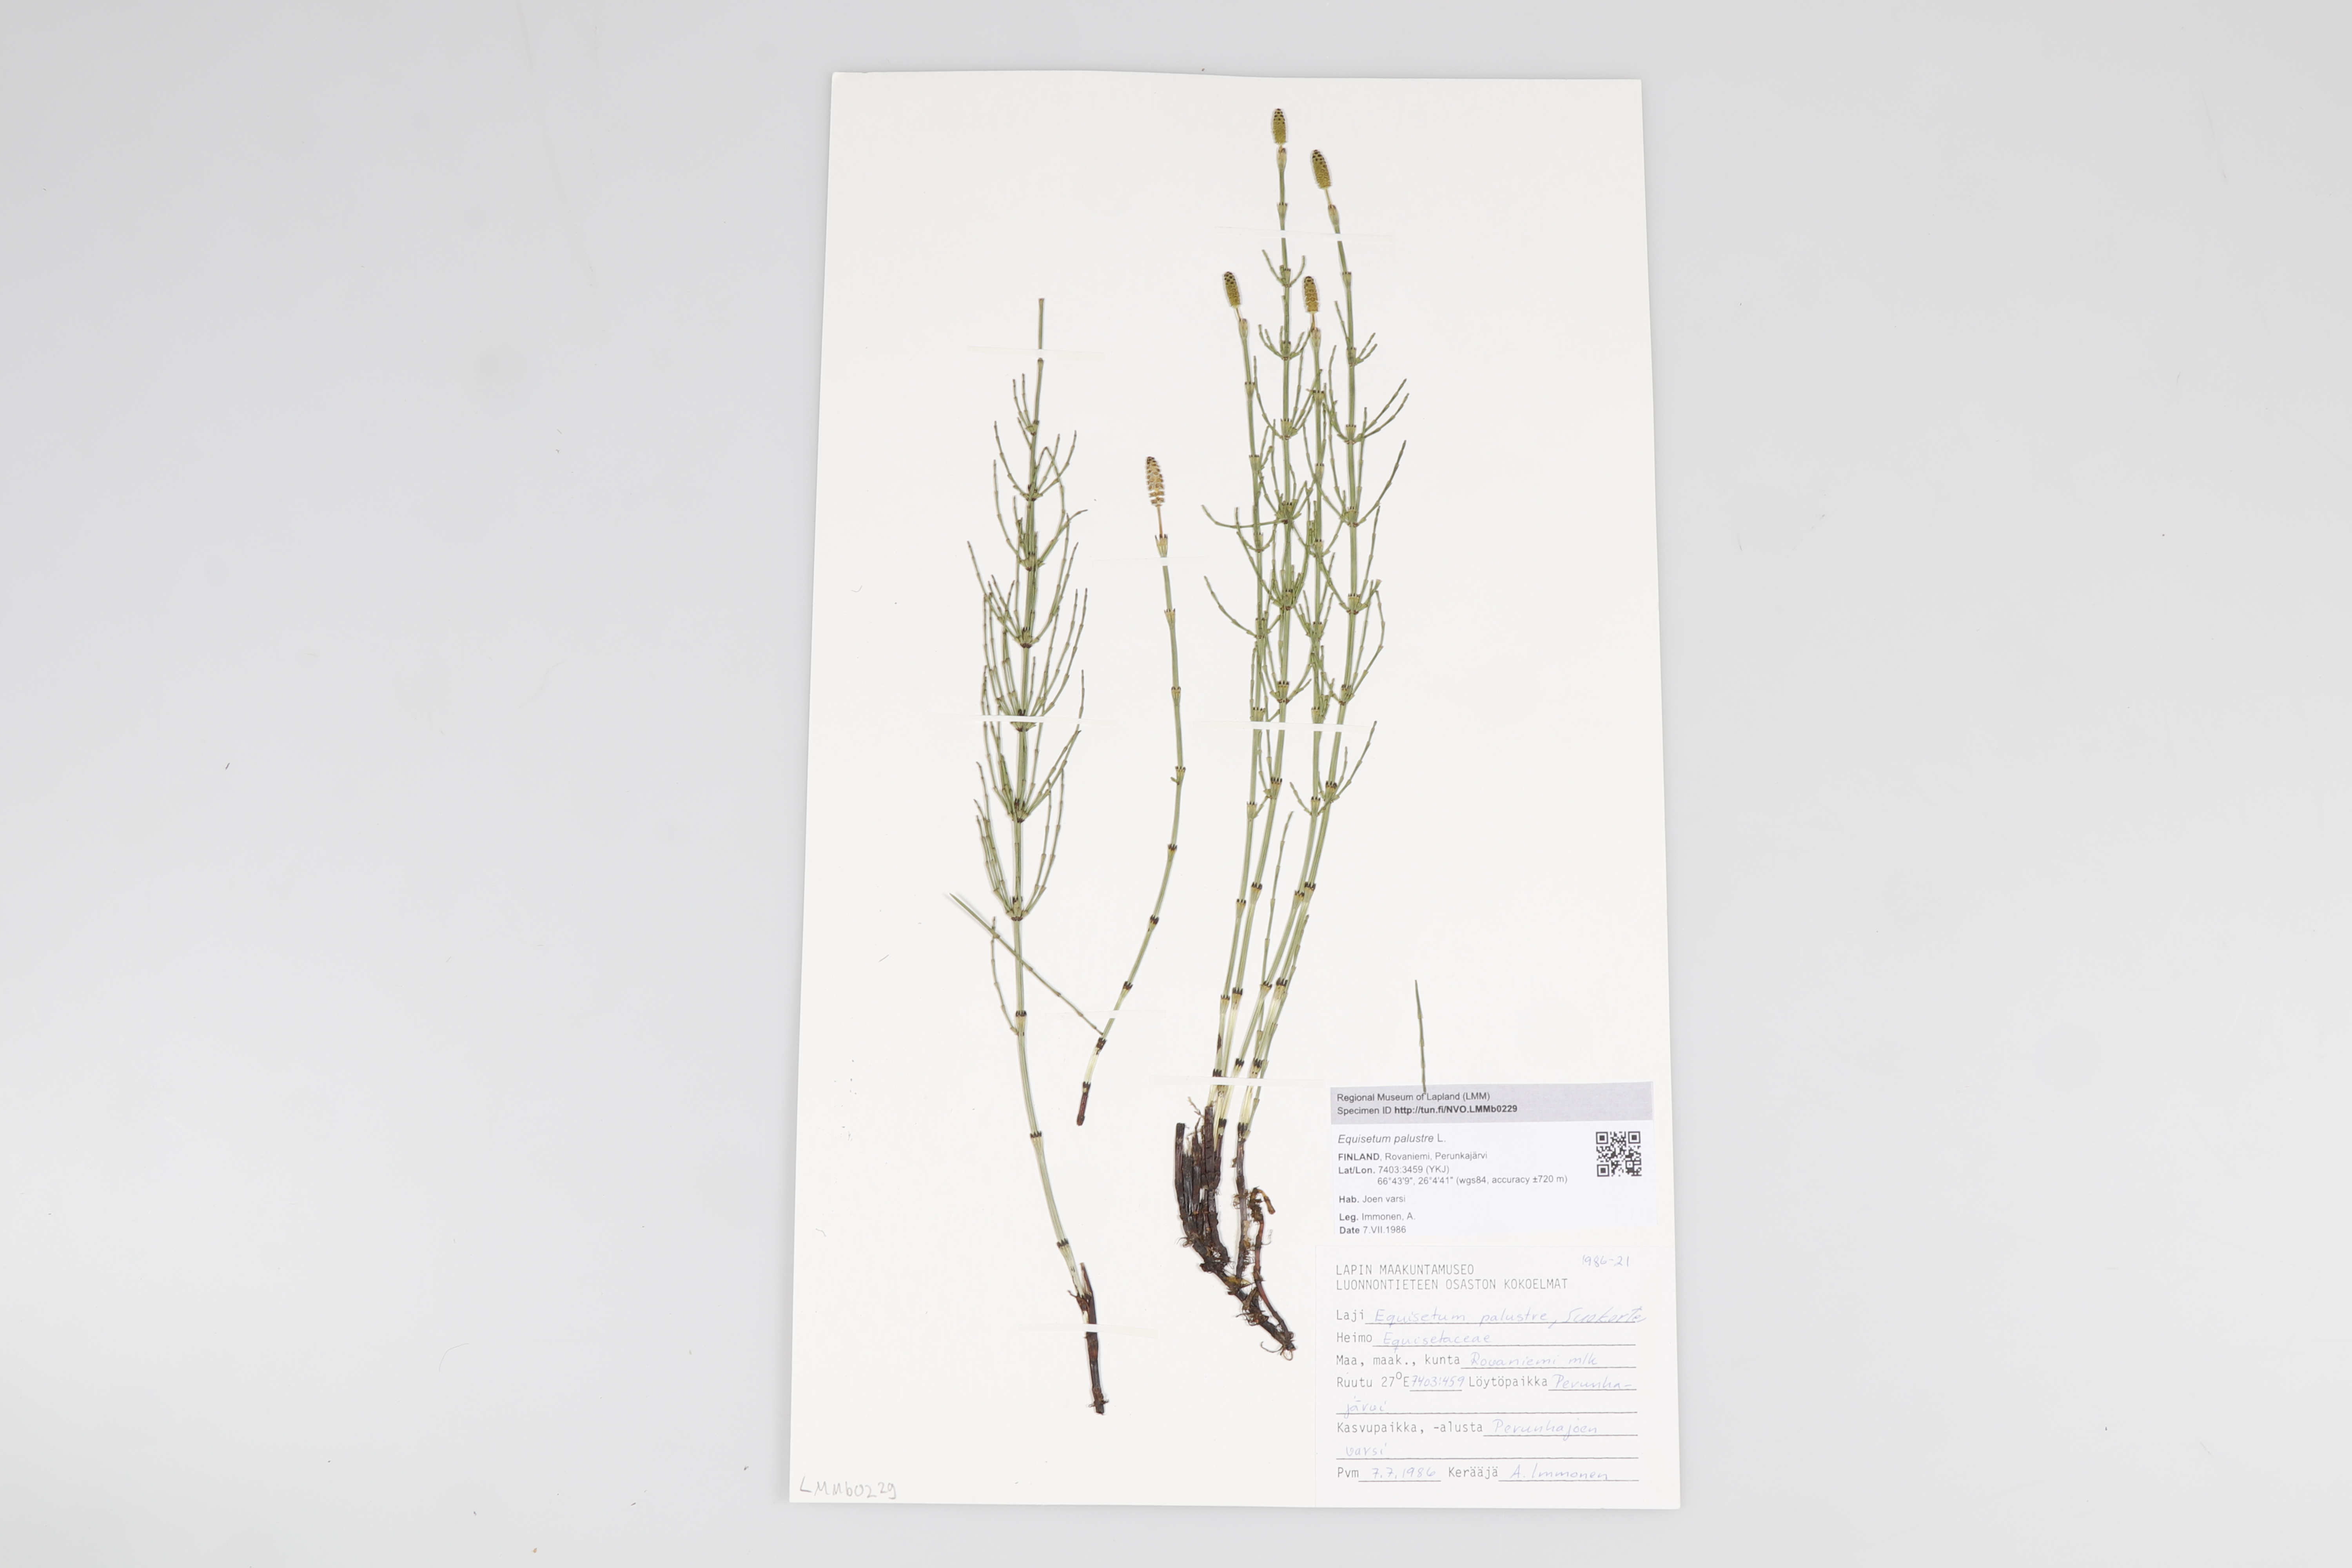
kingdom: Plantae
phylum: Tracheophyta
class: Polypodiopsida
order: Equisetales
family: Equisetaceae
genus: Equisetum
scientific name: Equisetum palustre
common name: Marsh horsetail
